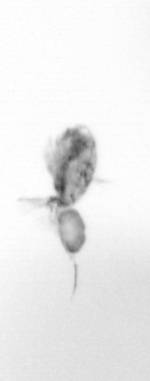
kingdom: Animalia
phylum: Arthropoda
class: Copepoda
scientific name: Copepoda
